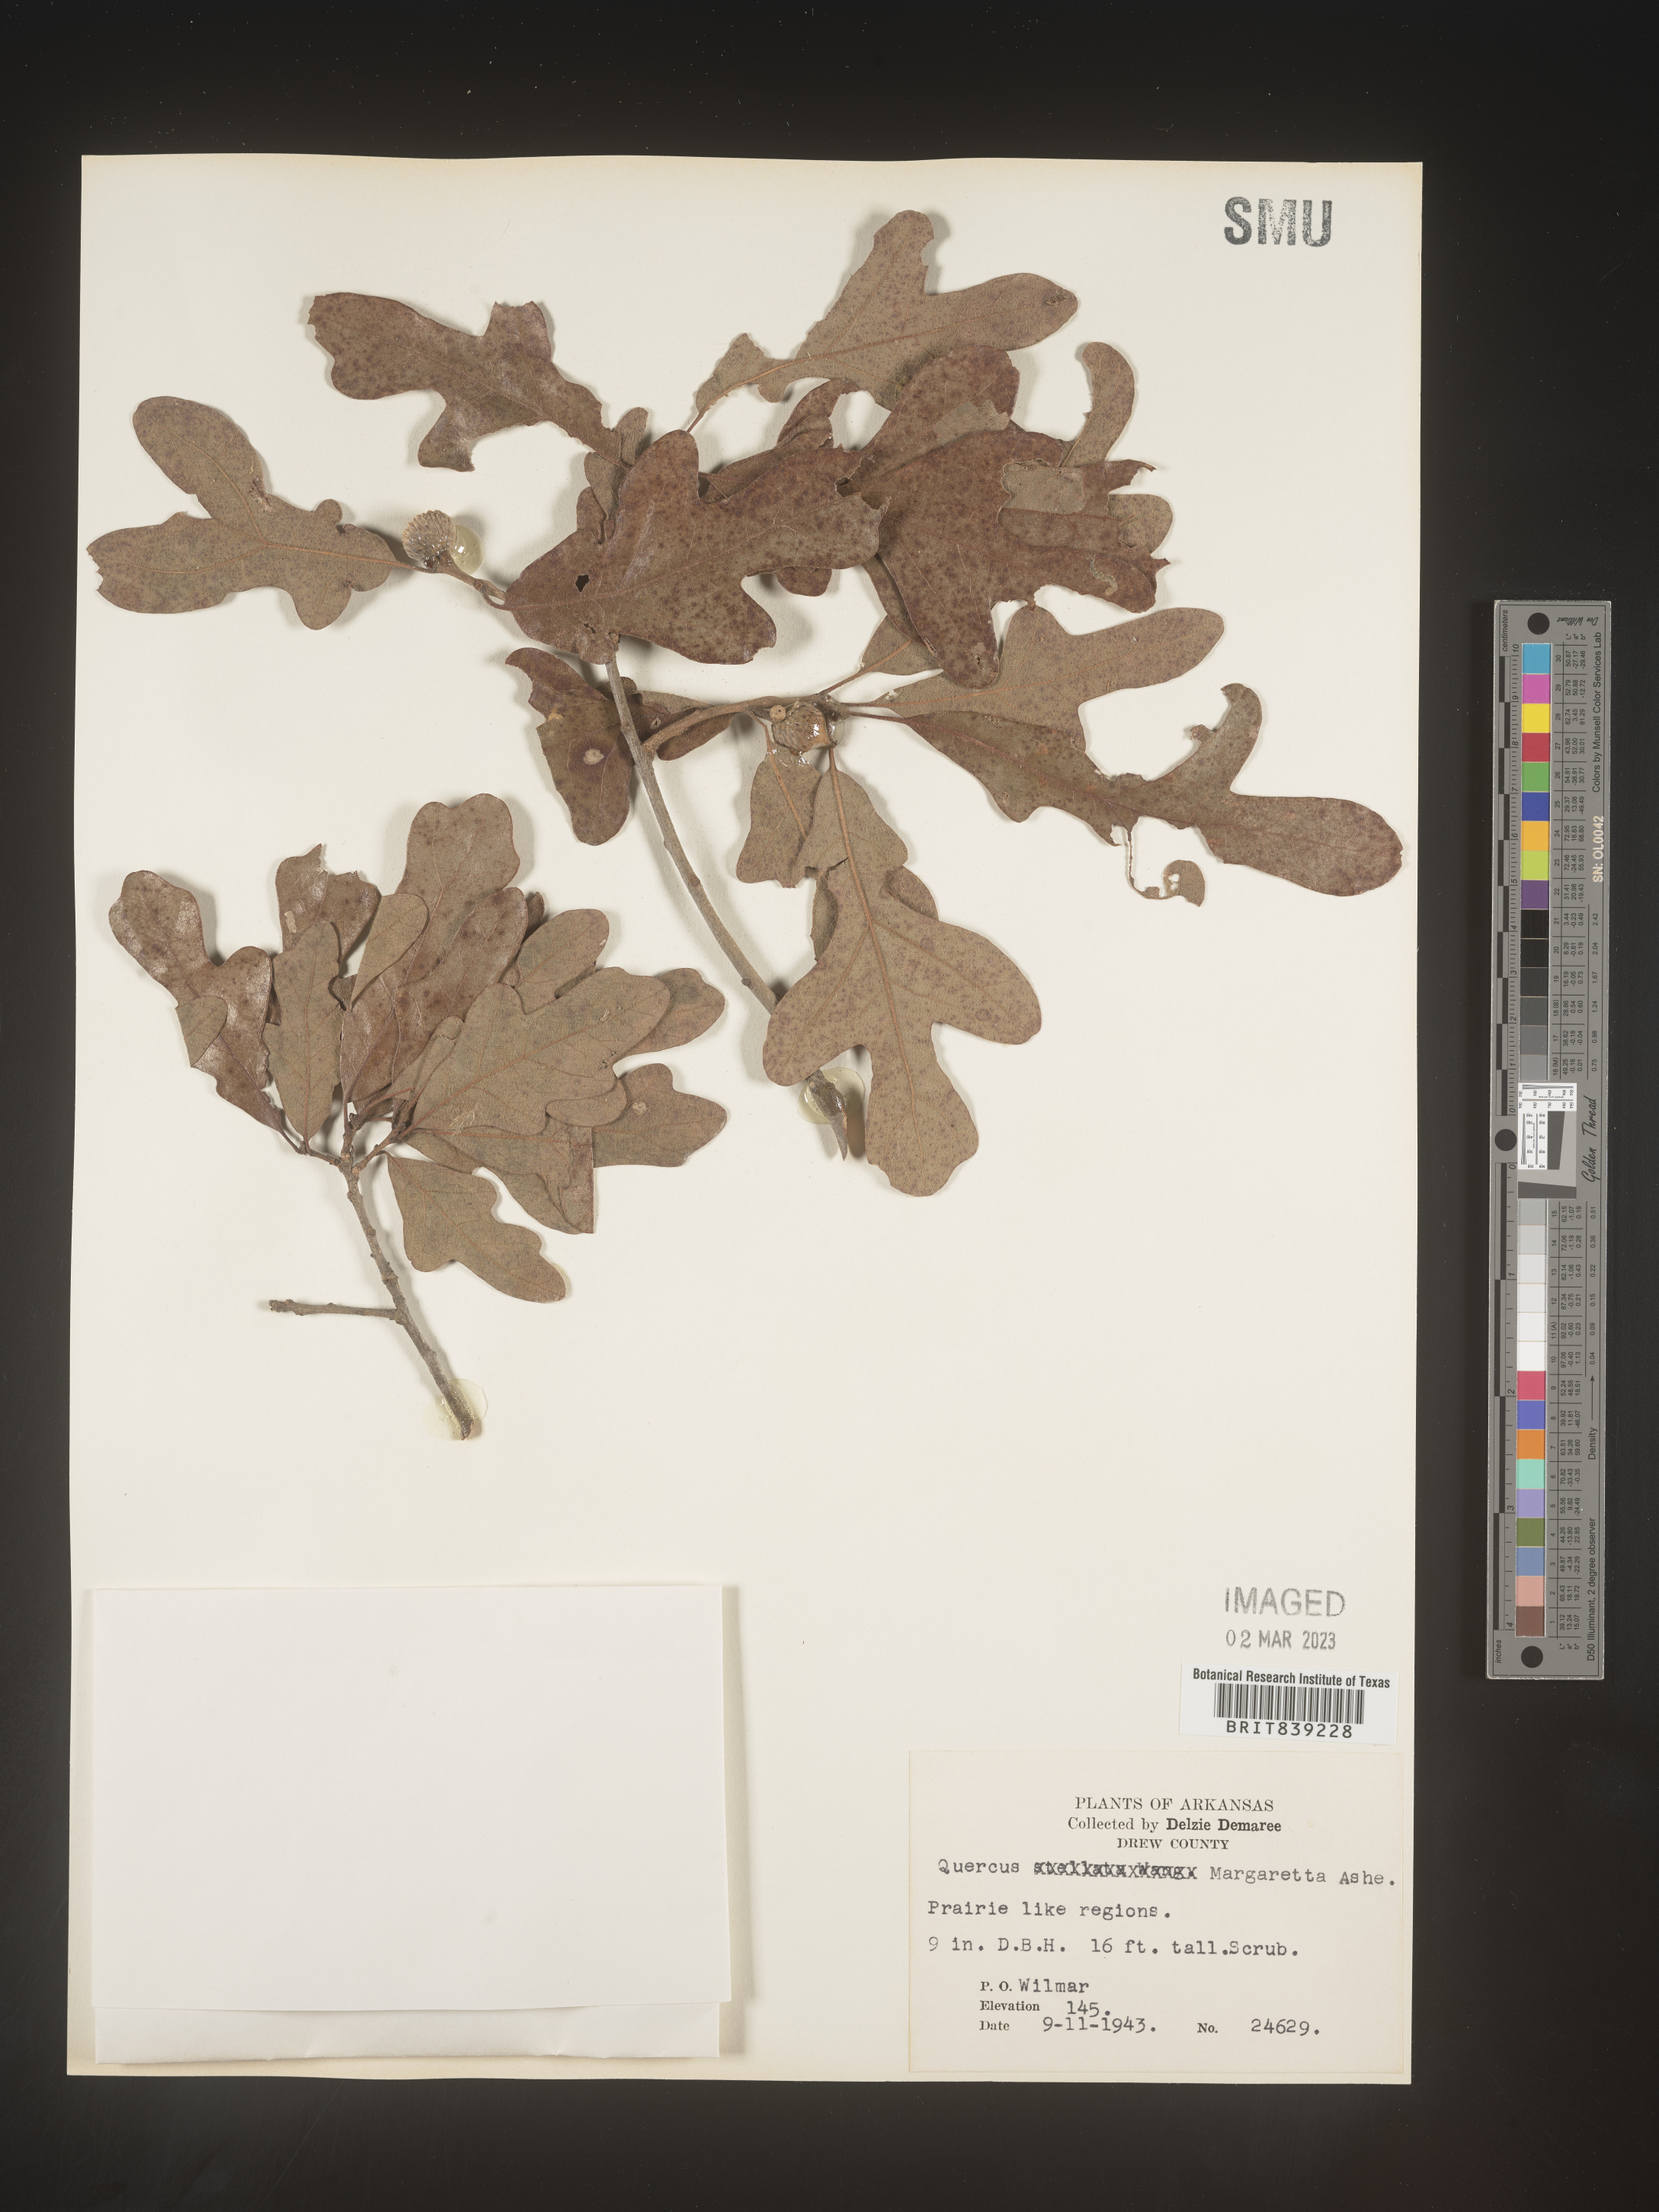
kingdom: Plantae
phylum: Tracheophyta
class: Magnoliopsida
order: Fagales
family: Fagaceae
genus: Quercus
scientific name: Quercus margaretta
